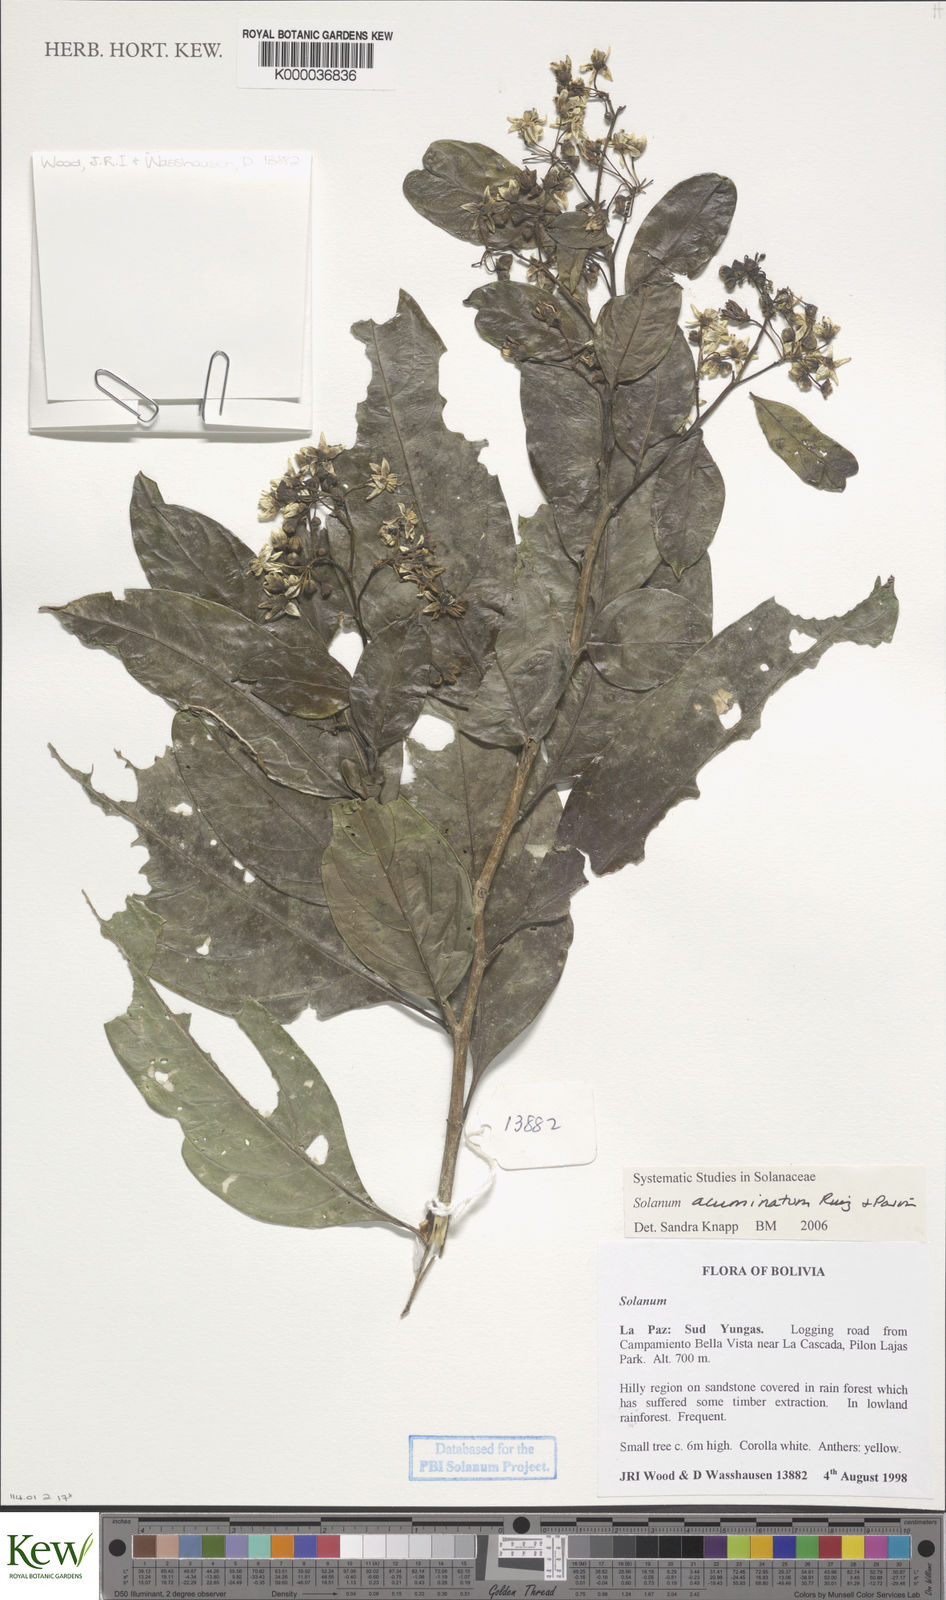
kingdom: Plantae
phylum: Tracheophyta
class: Magnoliopsida
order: Solanales
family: Solanaceae
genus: Solanum
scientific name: Solanum acuminatum
